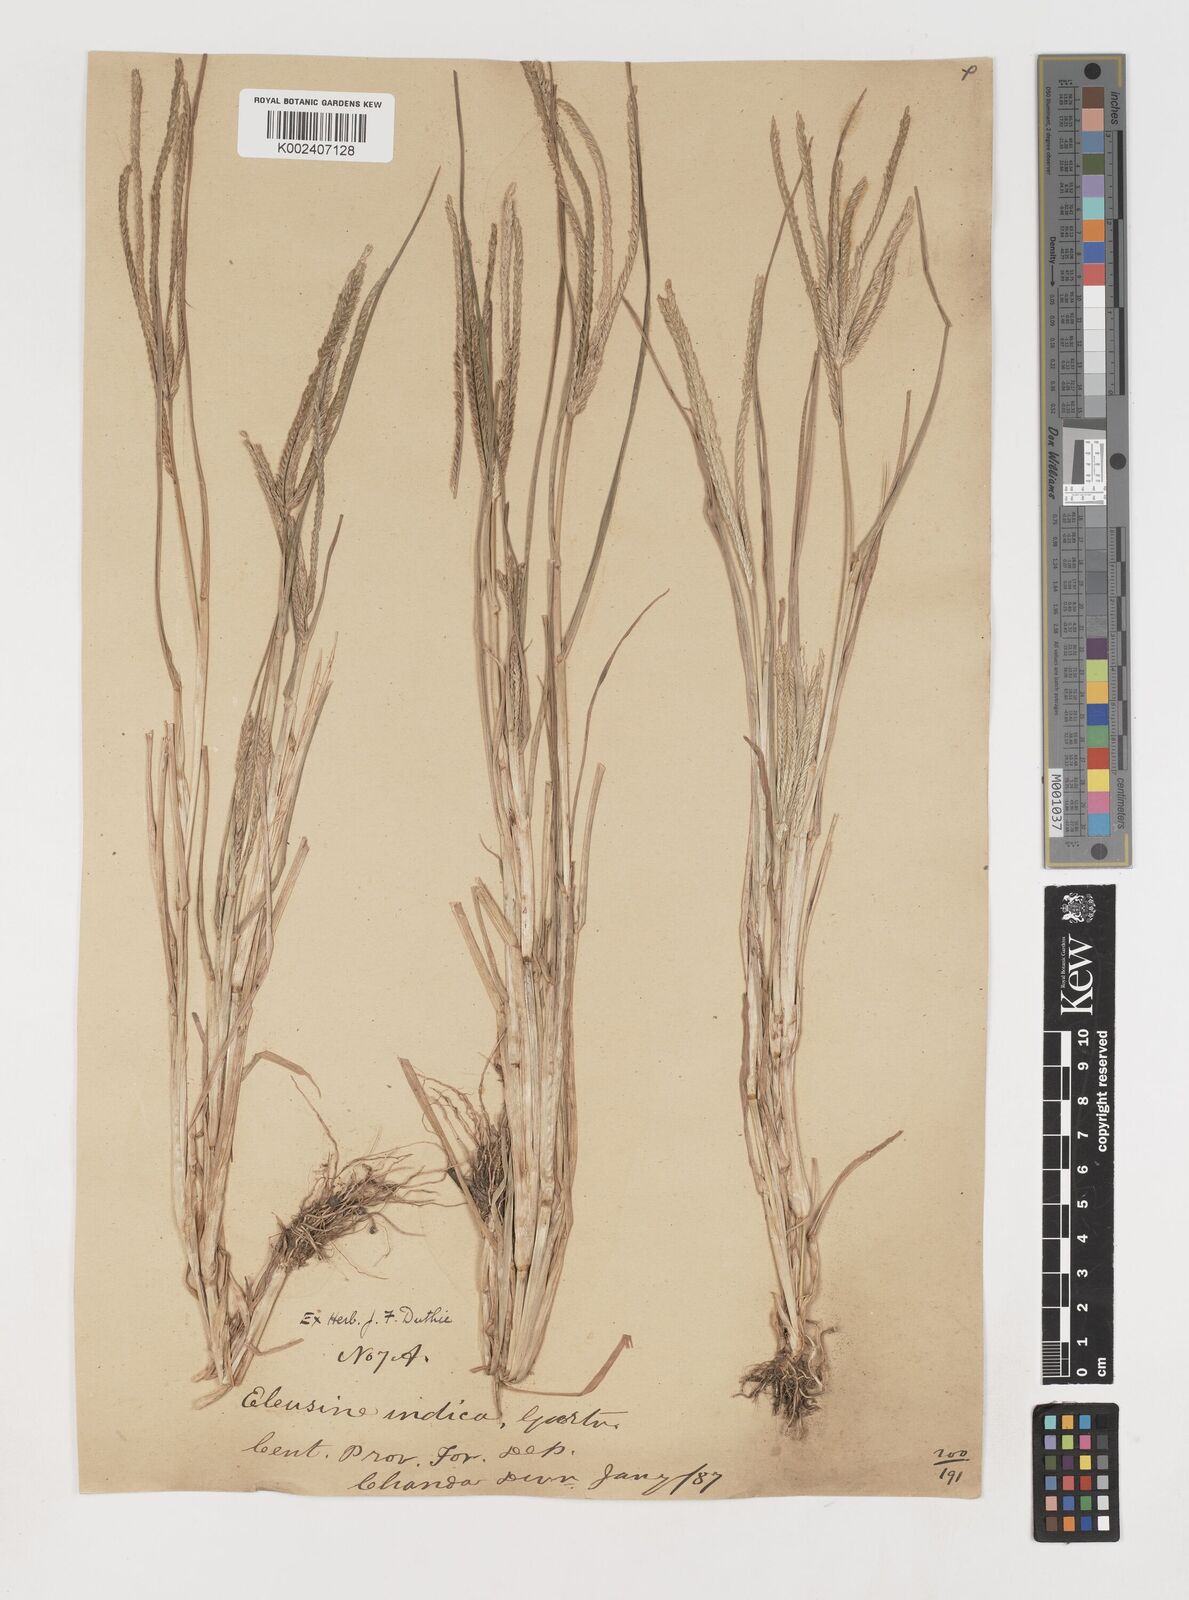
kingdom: Plantae
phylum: Tracheophyta
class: Liliopsida
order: Poales
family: Poaceae
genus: Eleusine
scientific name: Eleusine indica
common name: Yard-grass
